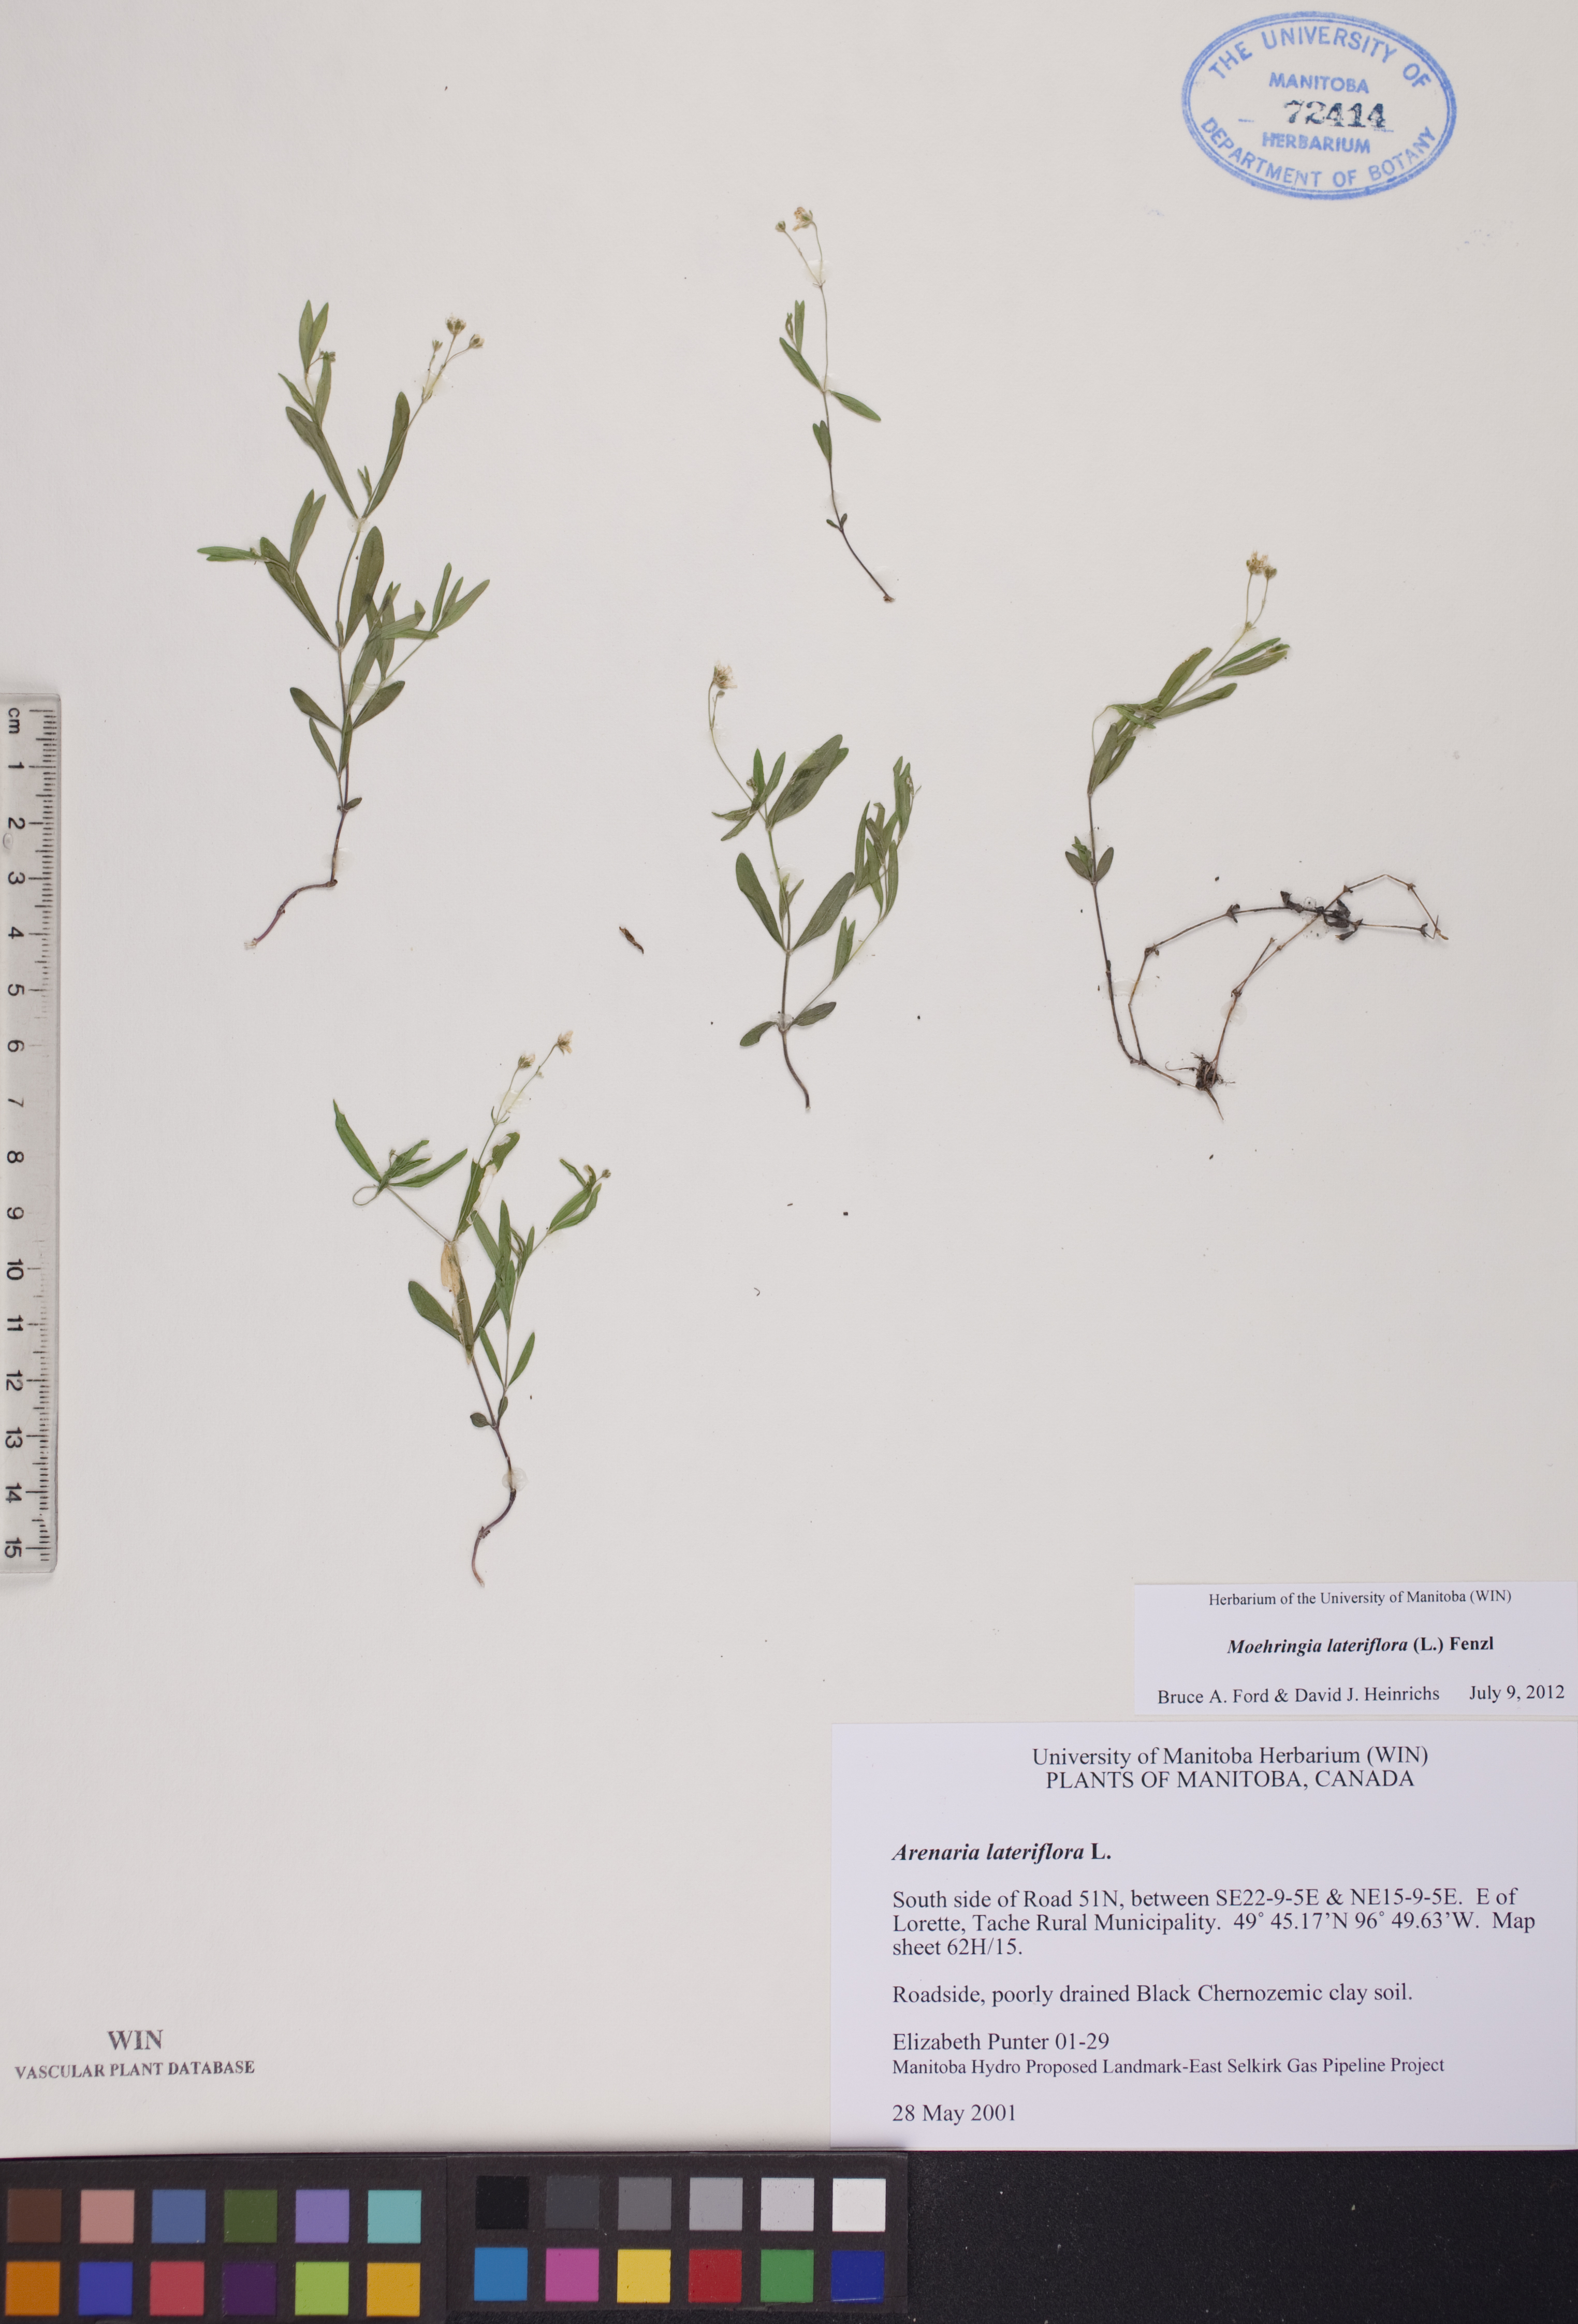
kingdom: Plantae
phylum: Tracheophyta
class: Magnoliopsida
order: Caryophyllales
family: Caryophyllaceae
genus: Moehringia
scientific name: Moehringia lateriflora
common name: Blunt-leaved sandwort
